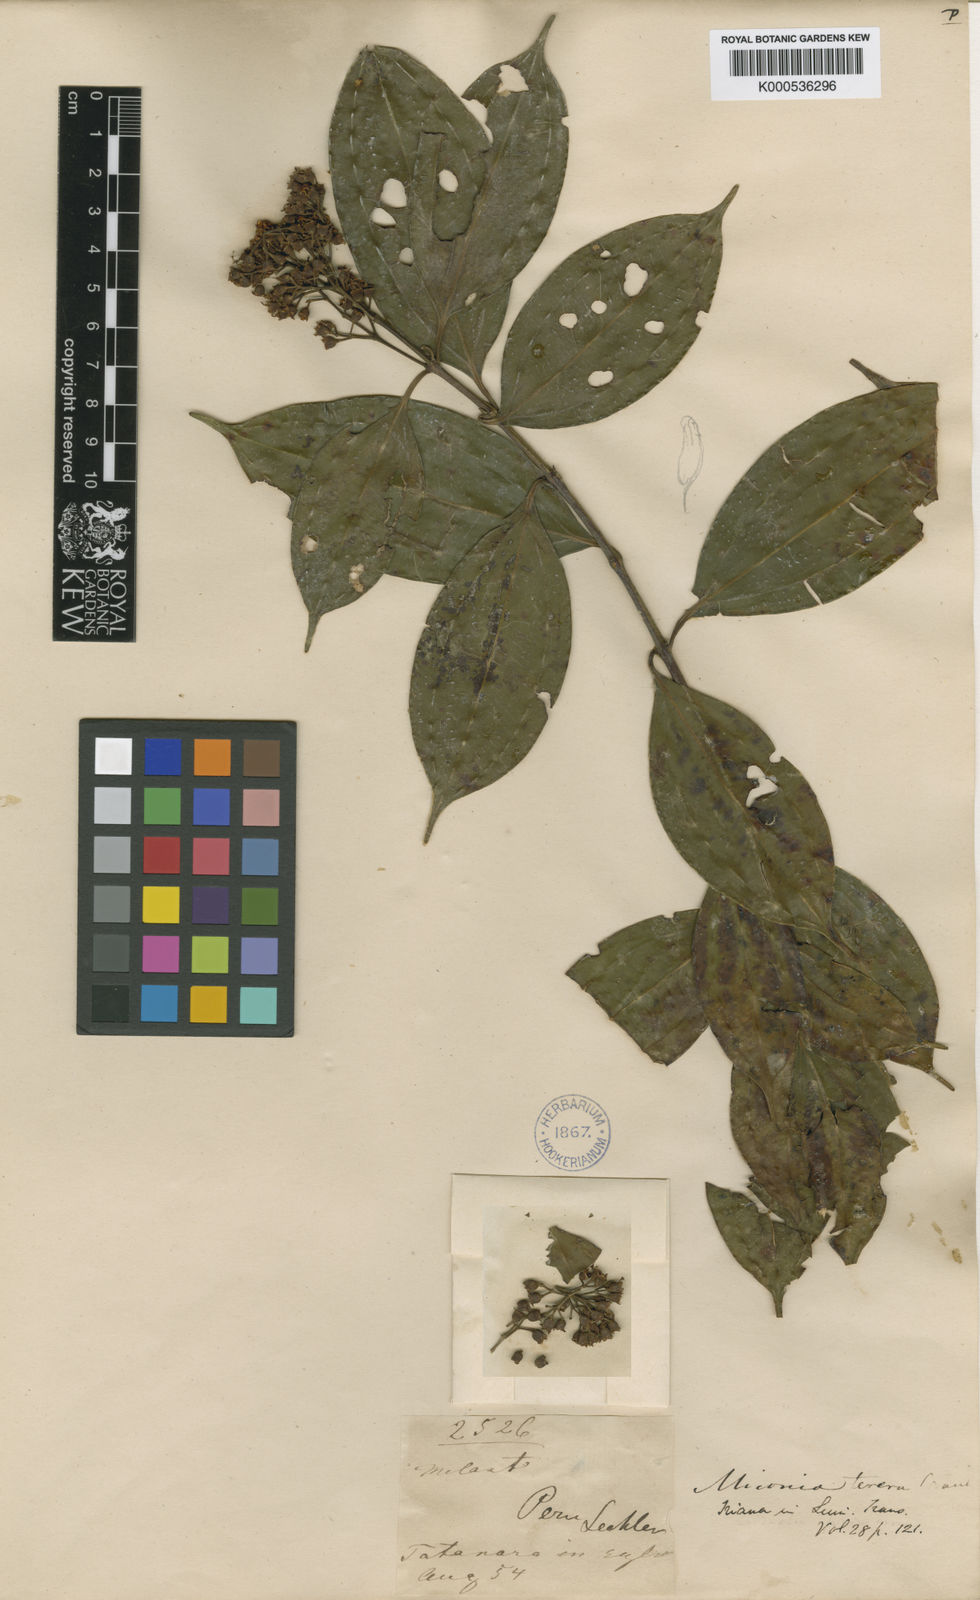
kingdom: Plantae
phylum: Tracheophyta
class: Magnoliopsida
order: Myrtales
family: Melastomataceae
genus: Miconia
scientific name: Miconia terera
